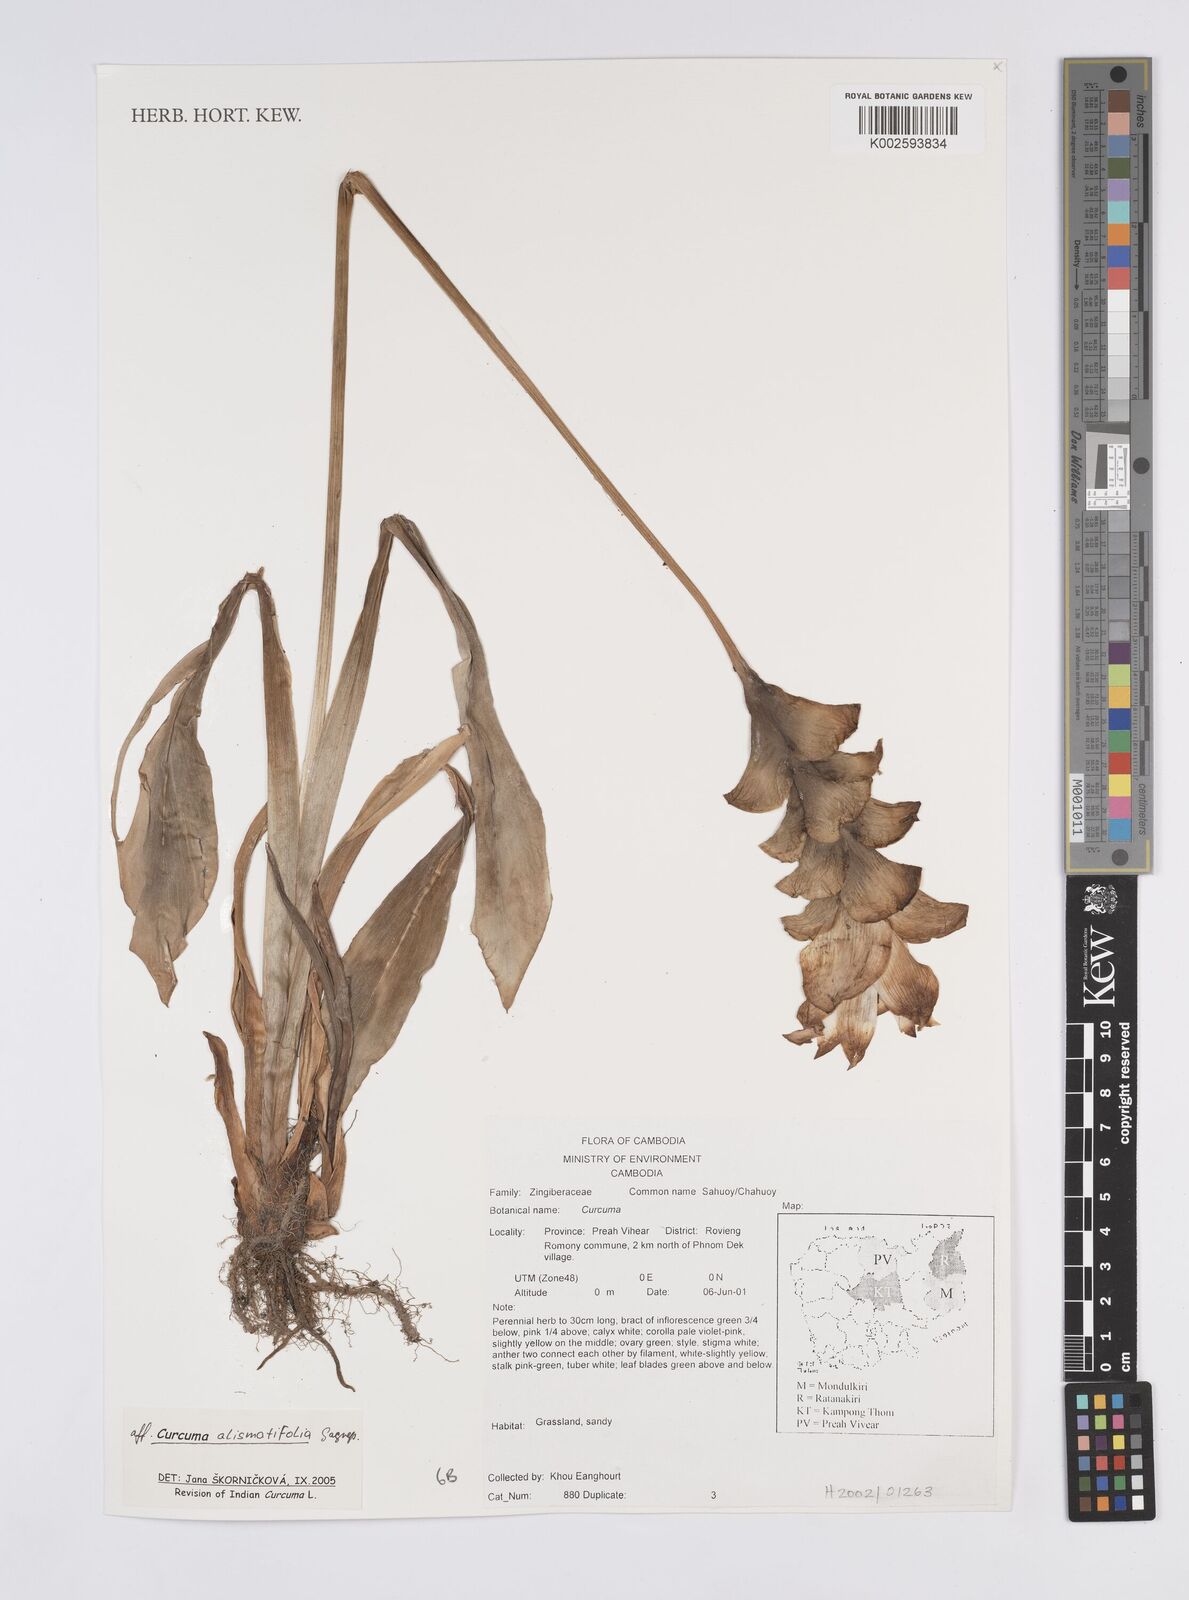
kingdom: Plantae
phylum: Tracheophyta
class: Liliopsida
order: Zingiberales
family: Zingiberaceae
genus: Curcuma
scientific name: Curcuma alismatifolia
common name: Siam tulip
